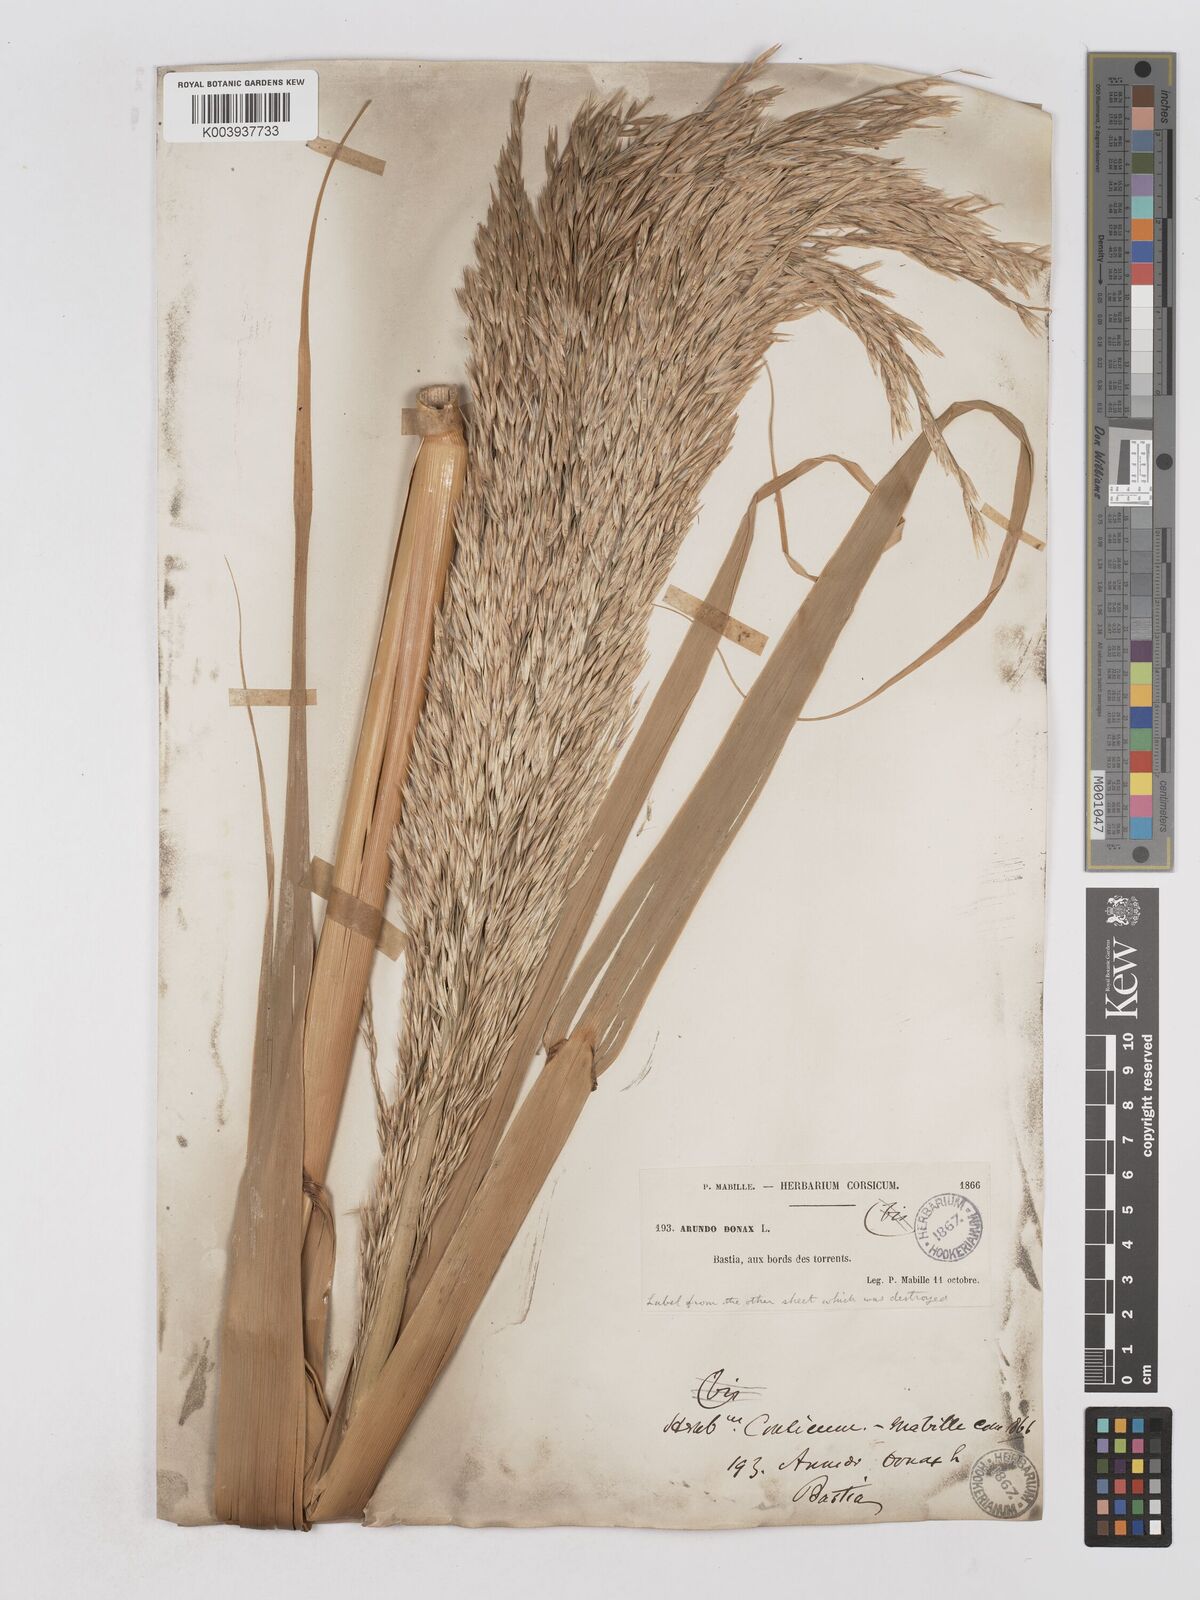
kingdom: Plantae
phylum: Tracheophyta
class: Liliopsida
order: Poales
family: Poaceae
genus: Arundo
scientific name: Arundo donax
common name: Giant reed
